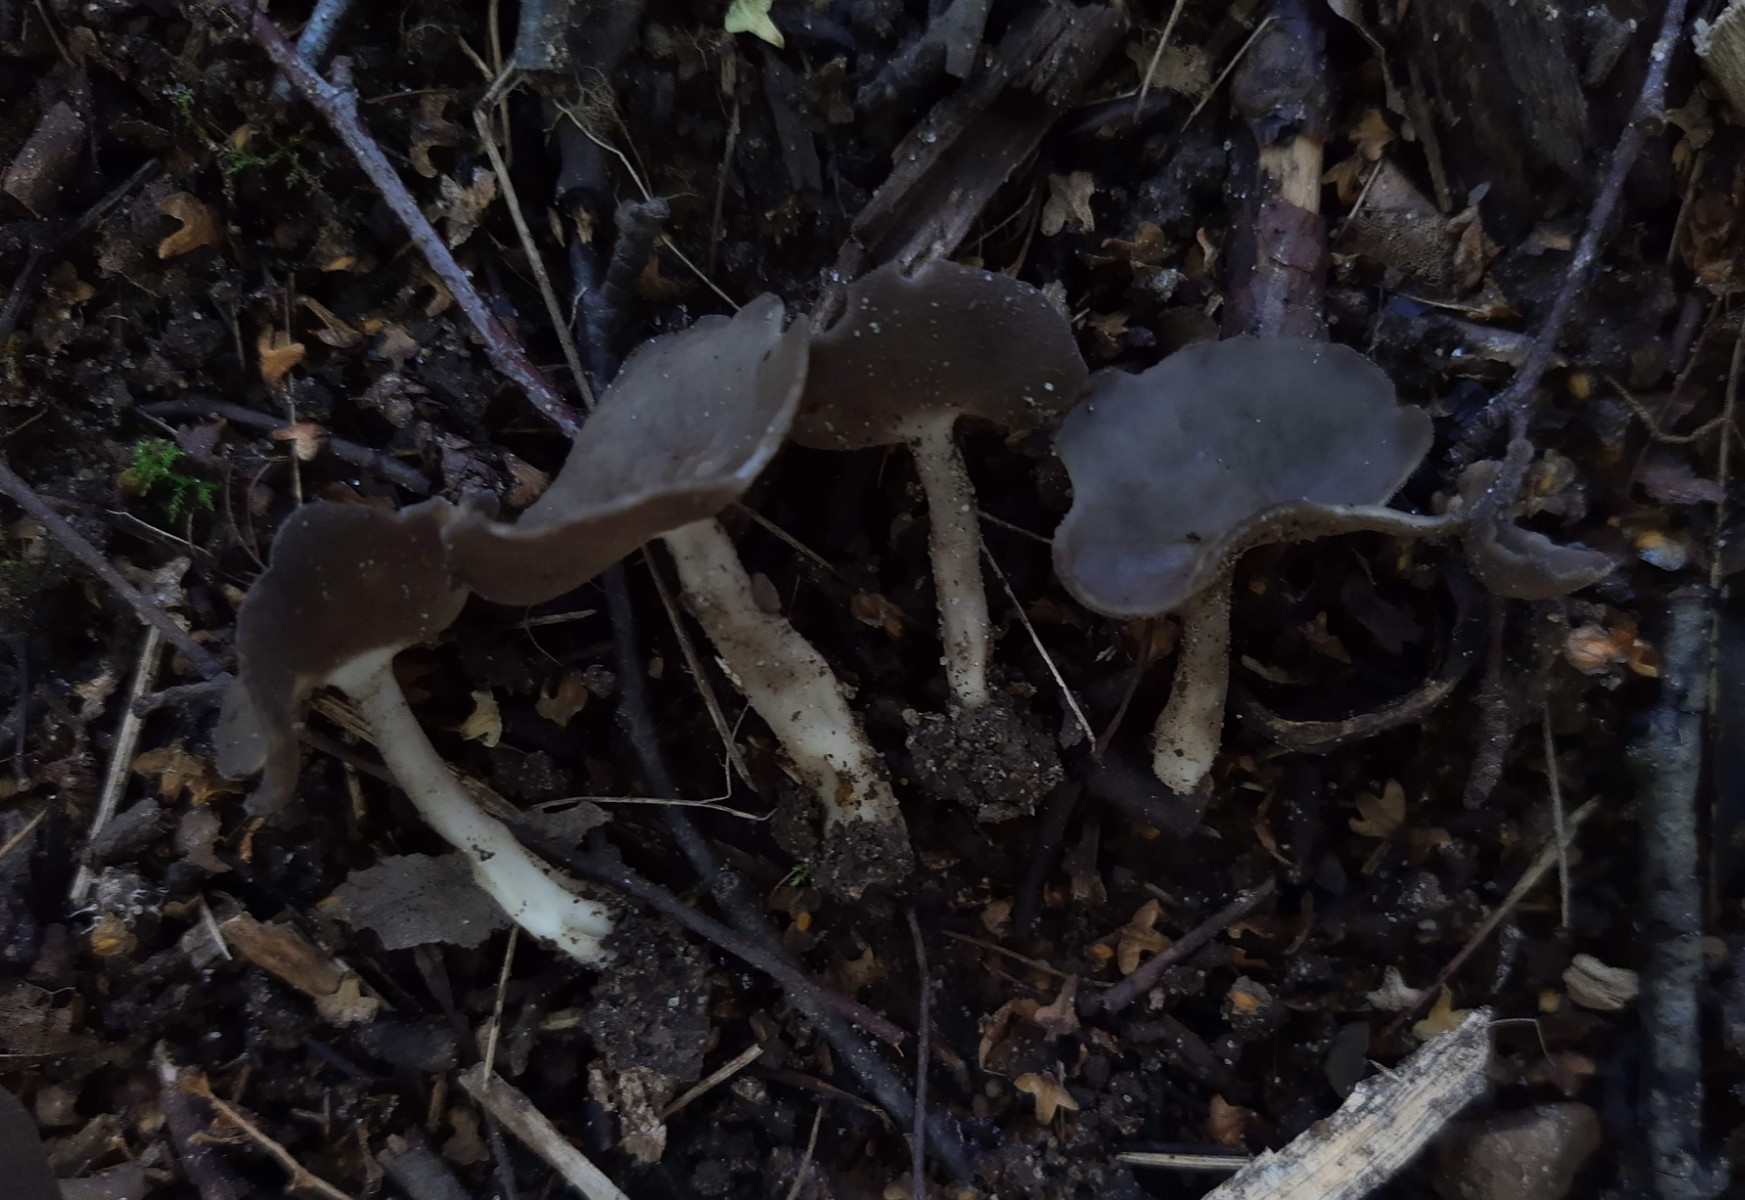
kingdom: Fungi
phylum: Ascomycota
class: Pezizomycetes
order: Pezizales
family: Helvellaceae
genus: Helvella
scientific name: Helvella fibrosa
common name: dunstokket foldhat
